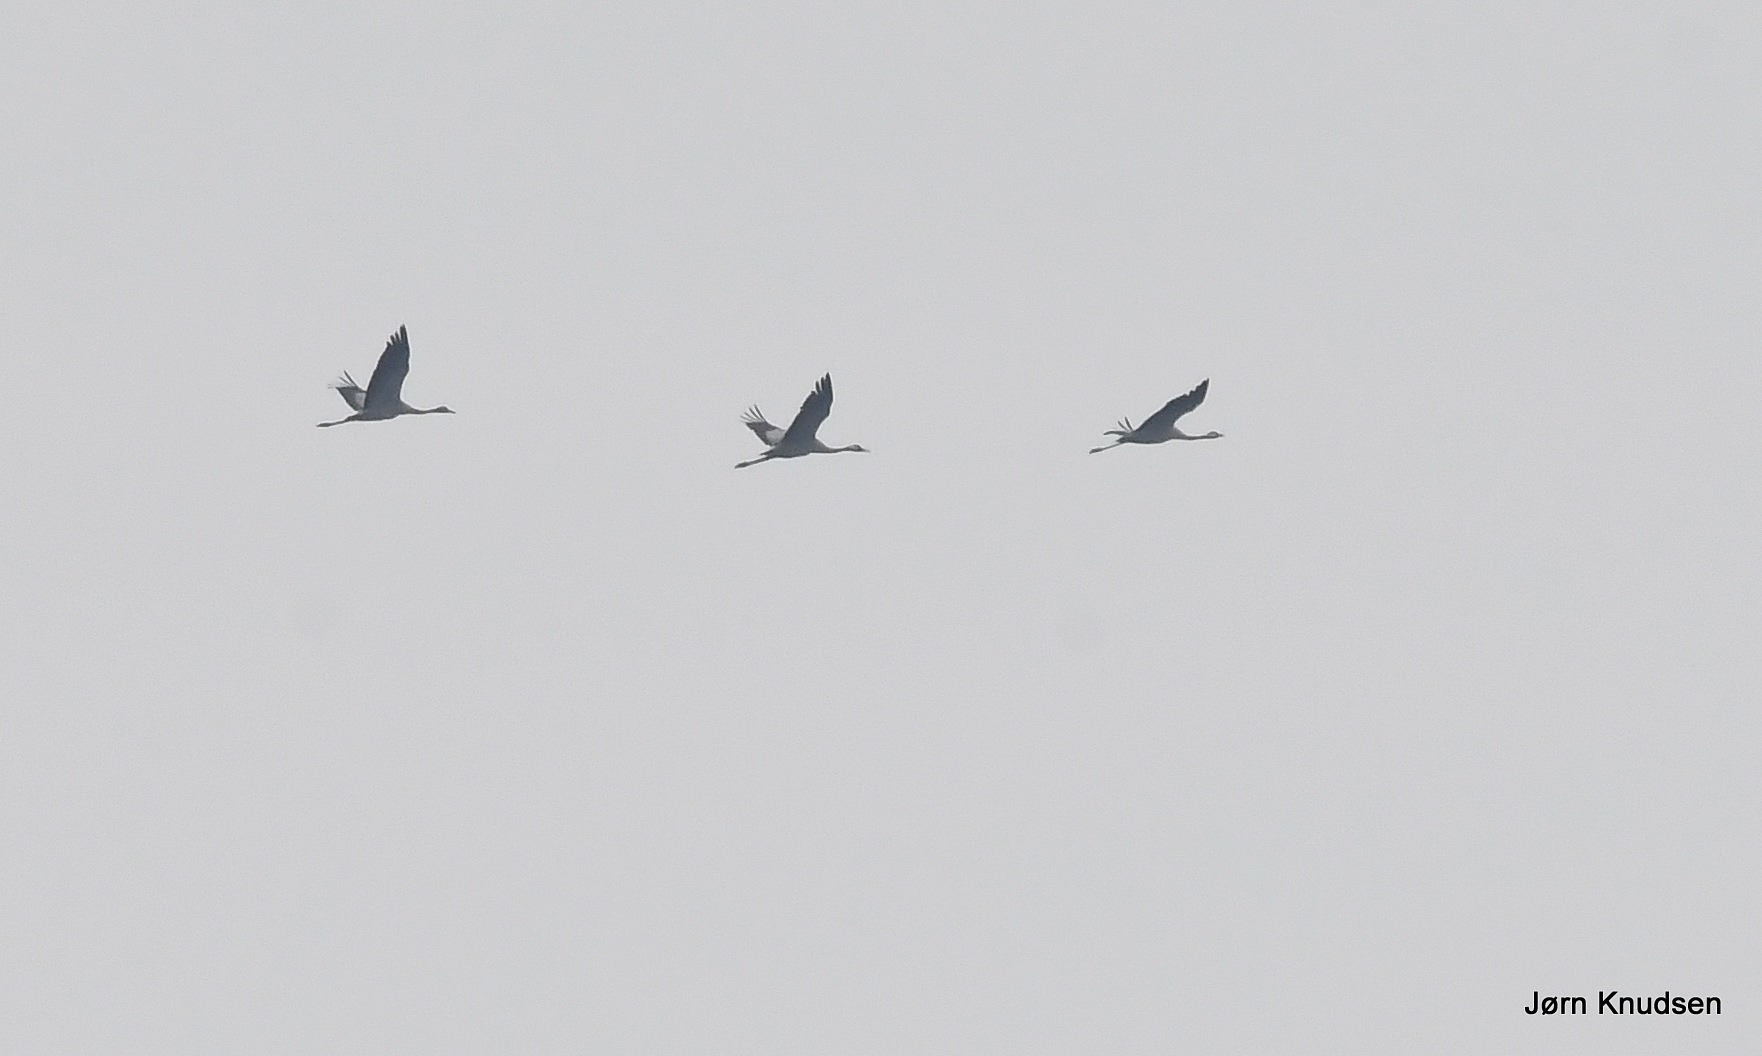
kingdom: Animalia
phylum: Chordata
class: Aves
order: Gruiformes
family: Gruidae
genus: Grus
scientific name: Grus grus
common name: Trane
